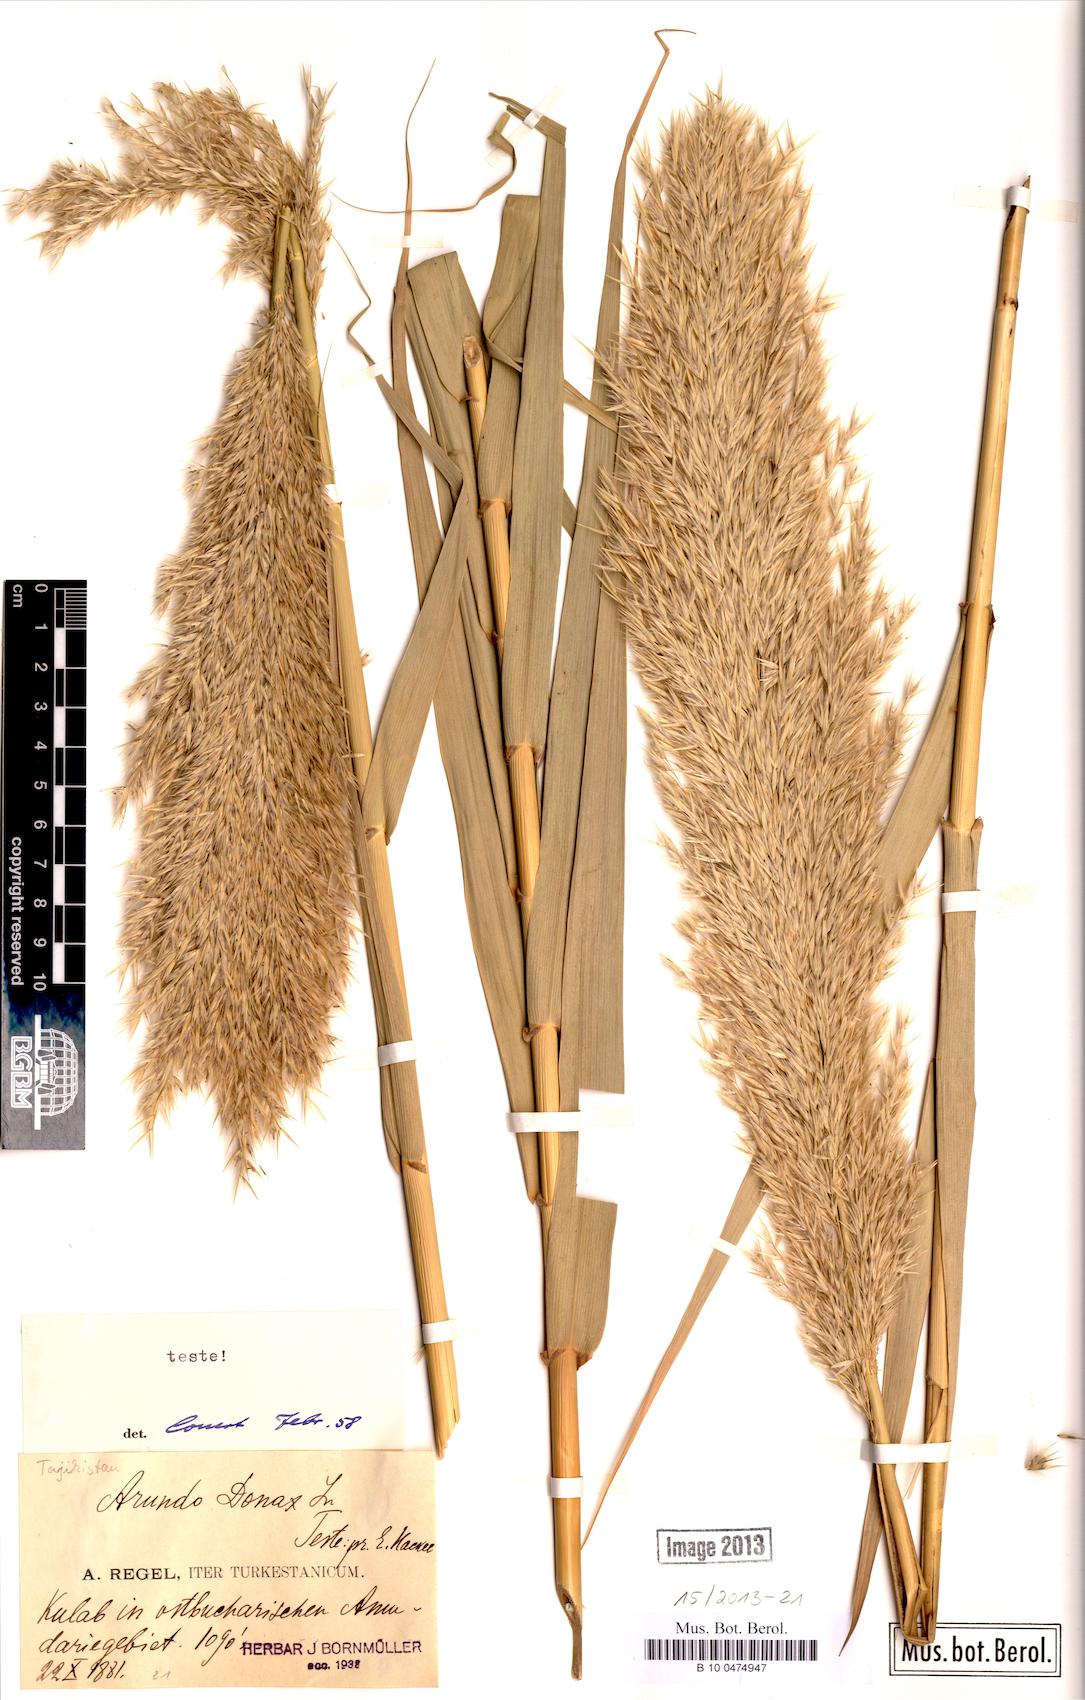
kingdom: Plantae
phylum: Tracheophyta
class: Liliopsida
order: Poales
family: Poaceae
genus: Arundo
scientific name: Arundo donax
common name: Giant reed
